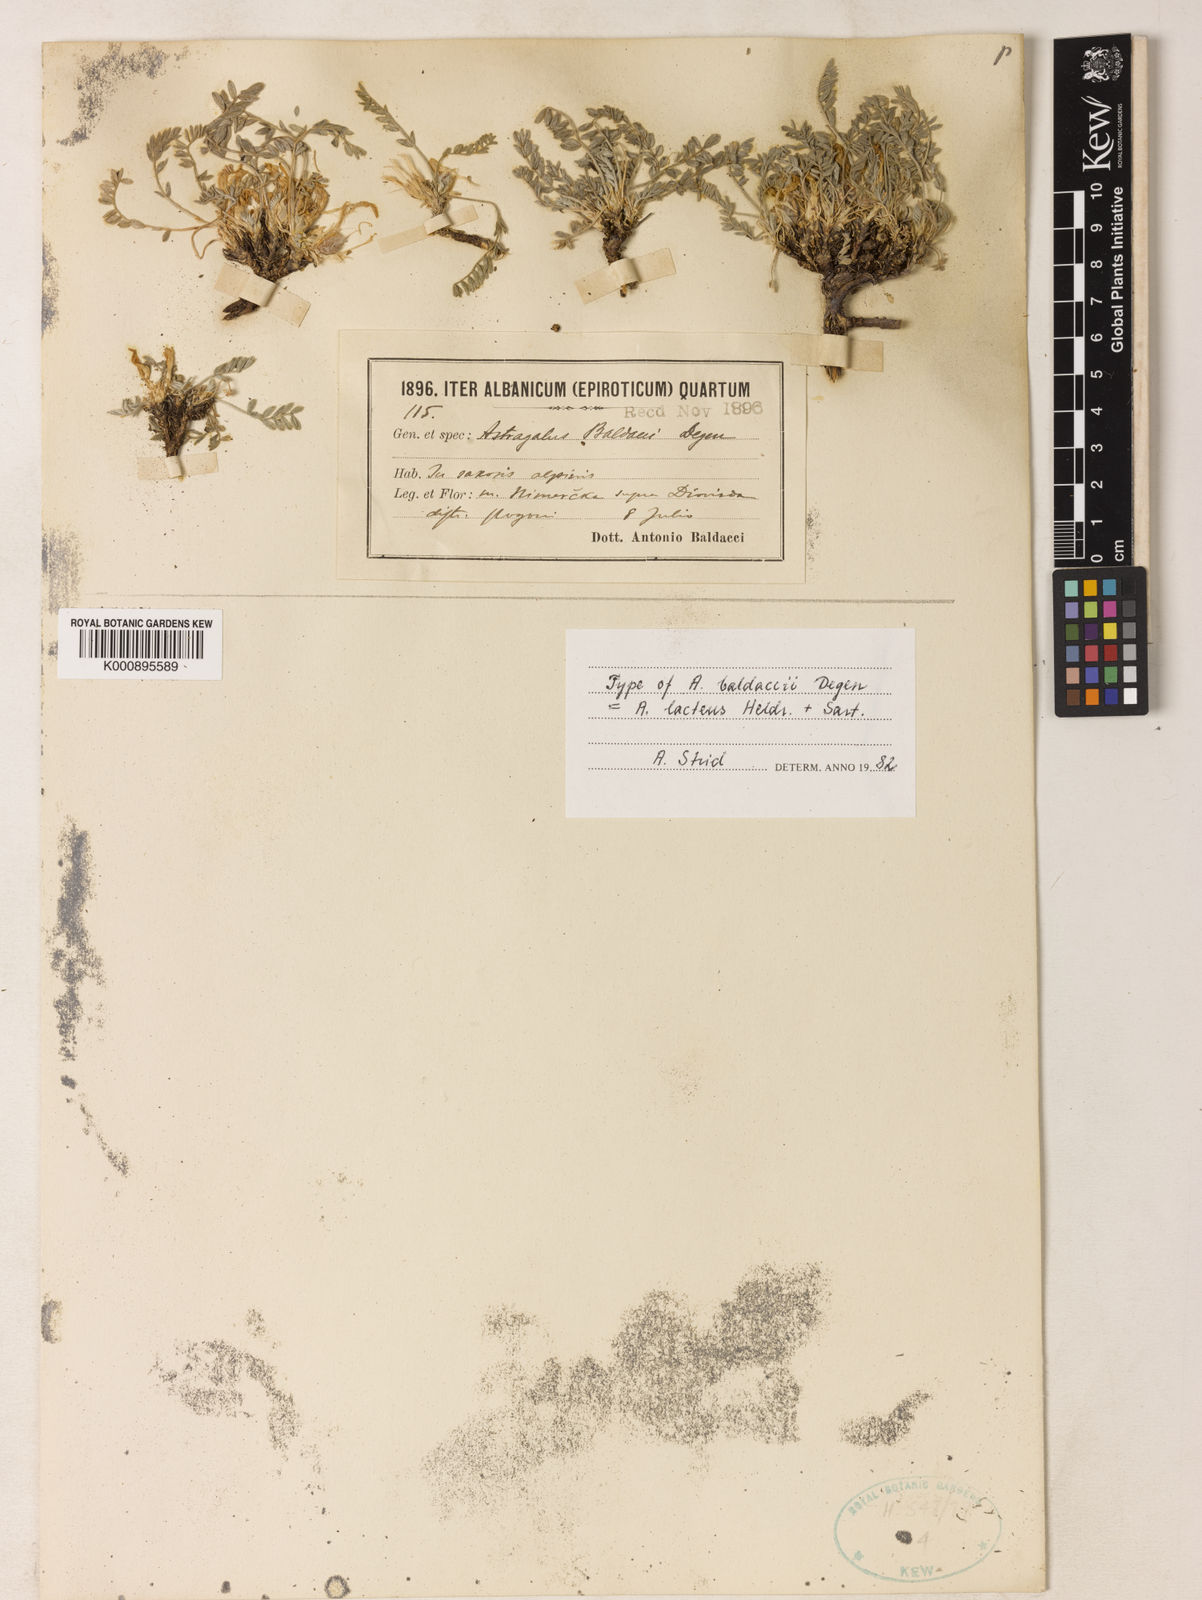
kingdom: Plantae
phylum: Tracheophyta
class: Magnoliopsida
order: Fabales
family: Fabaceae
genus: Astragalus
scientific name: Astragalus baldaccii
